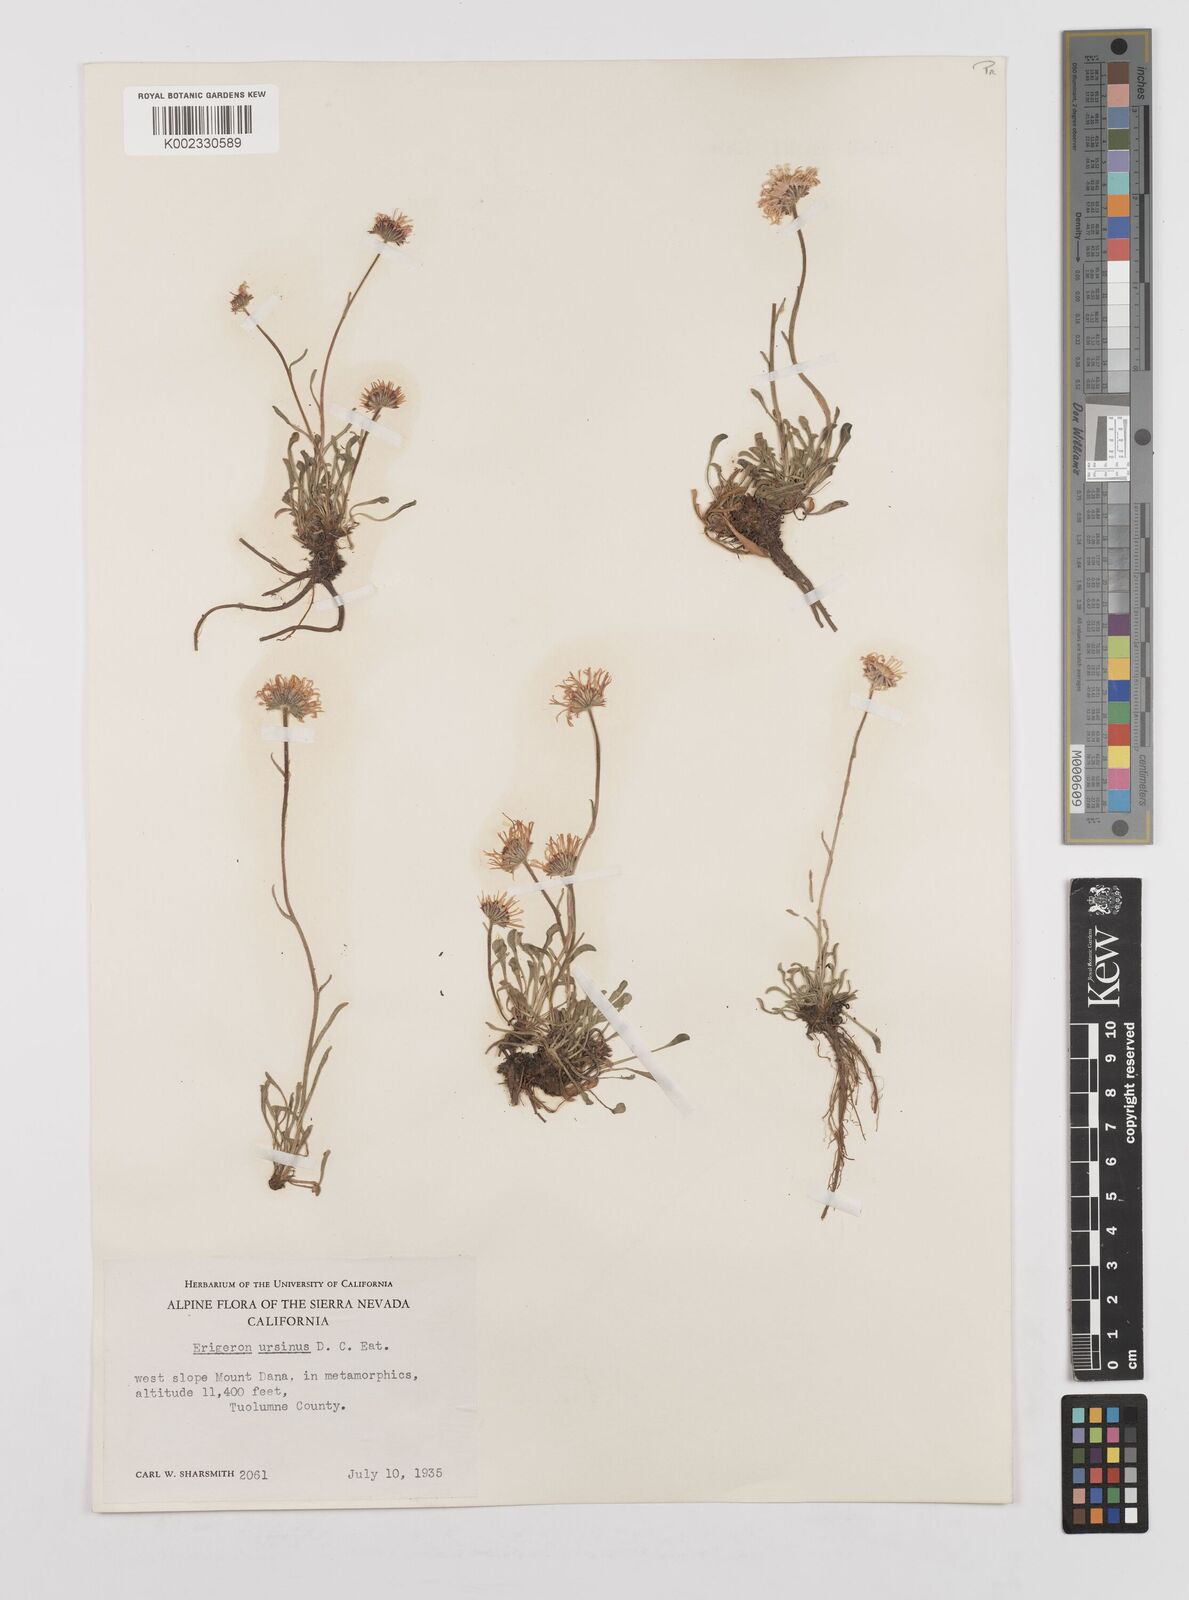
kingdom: Plantae
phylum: Tracheophyta
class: Magnoliopsida
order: Asterales
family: Asteraceae
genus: Erigeron
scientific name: Erigeron ursinus
